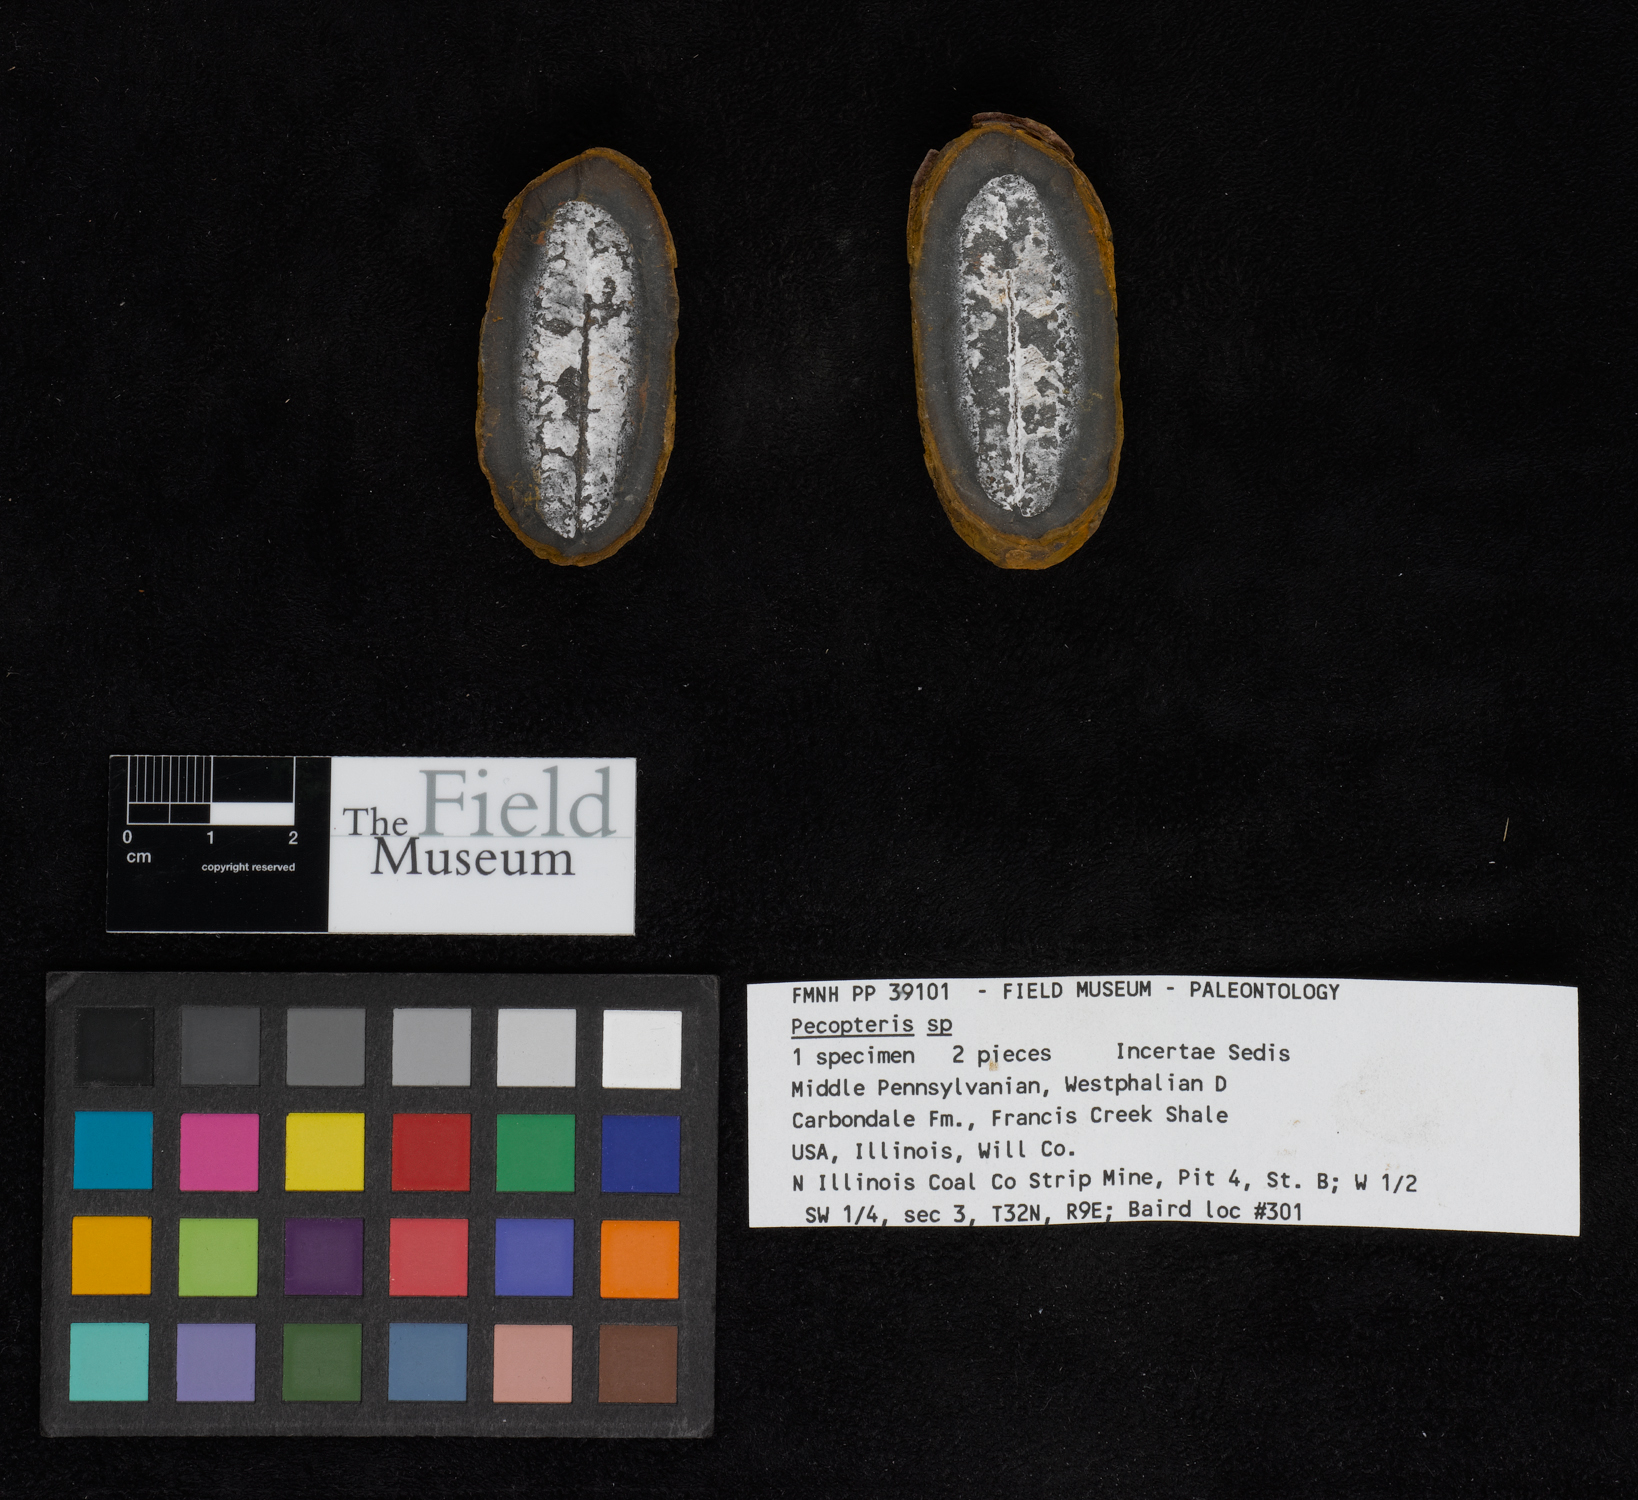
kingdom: Plantae
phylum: Tracheophyta
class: Polypodiopsida
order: Marattiales
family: Asterothecaceae
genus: Pecopteris
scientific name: Pecopteris
